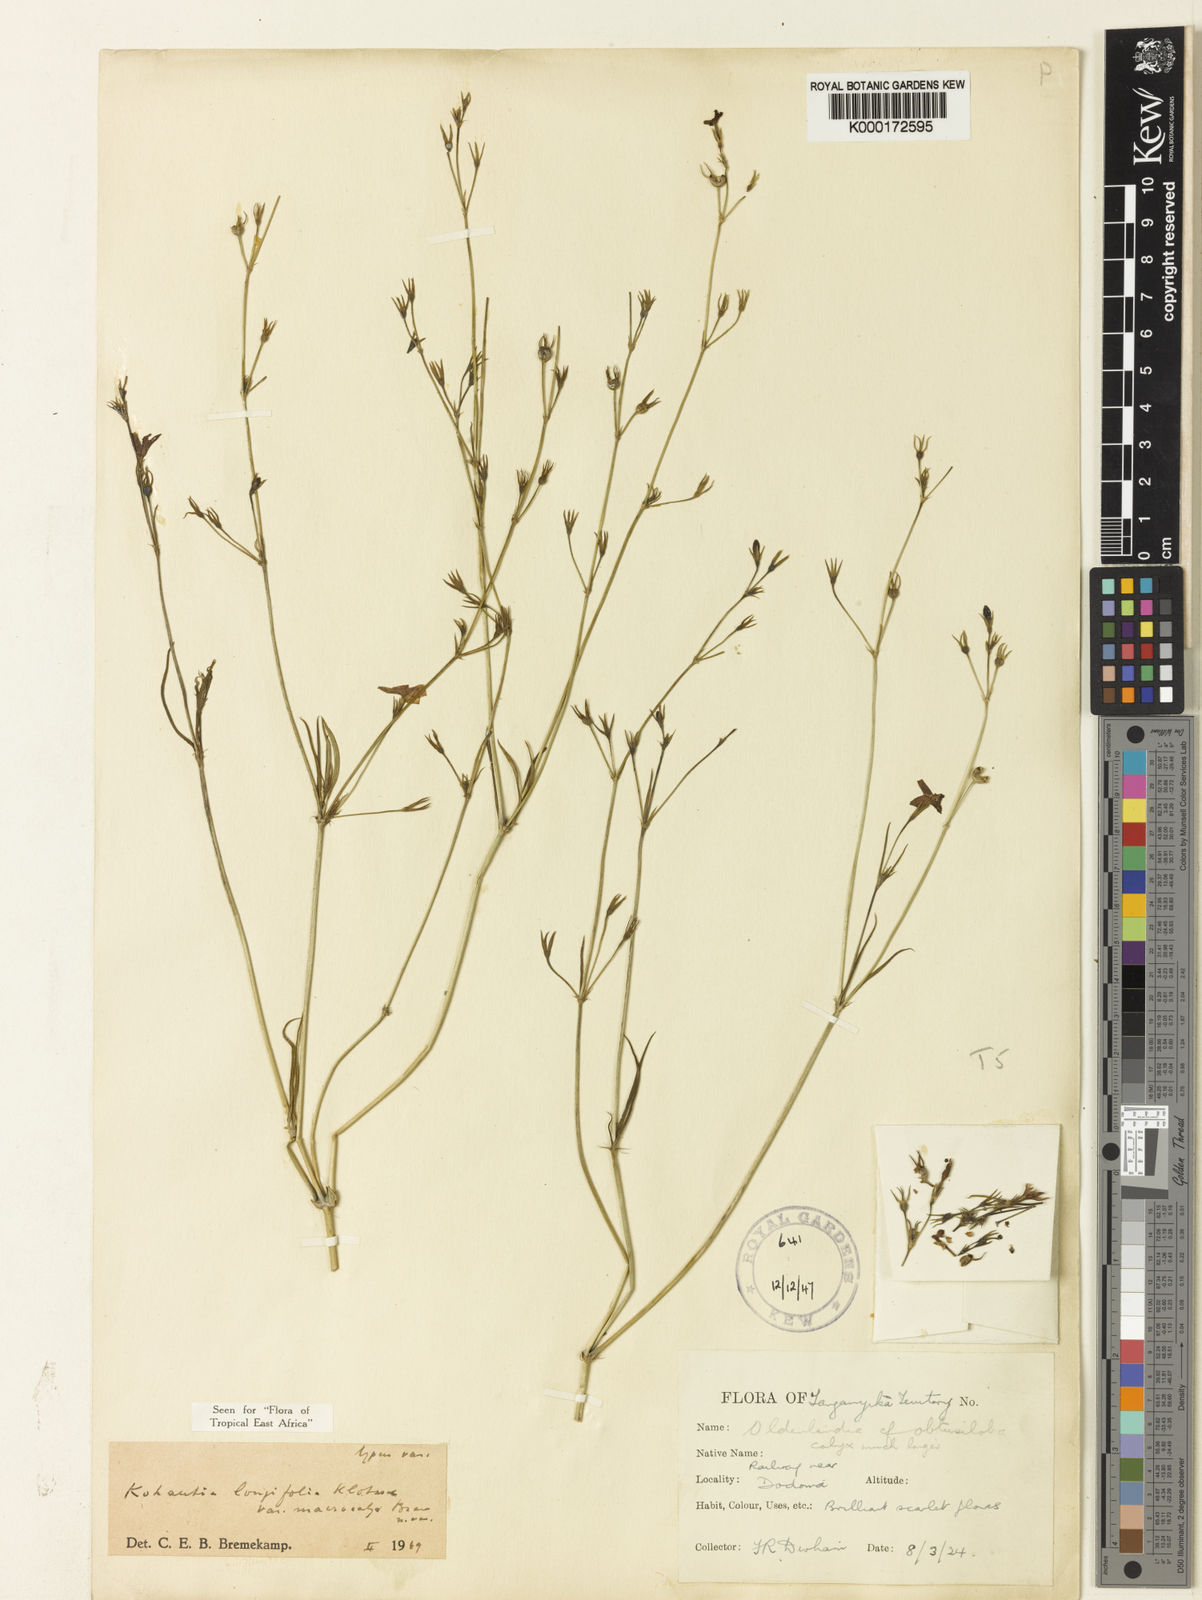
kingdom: Plantae
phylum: Tracheophyta
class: Magnoliopsida
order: Gentianales
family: Rubiaceae
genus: Cordylostigma
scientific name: Cordylostigma longifolium
